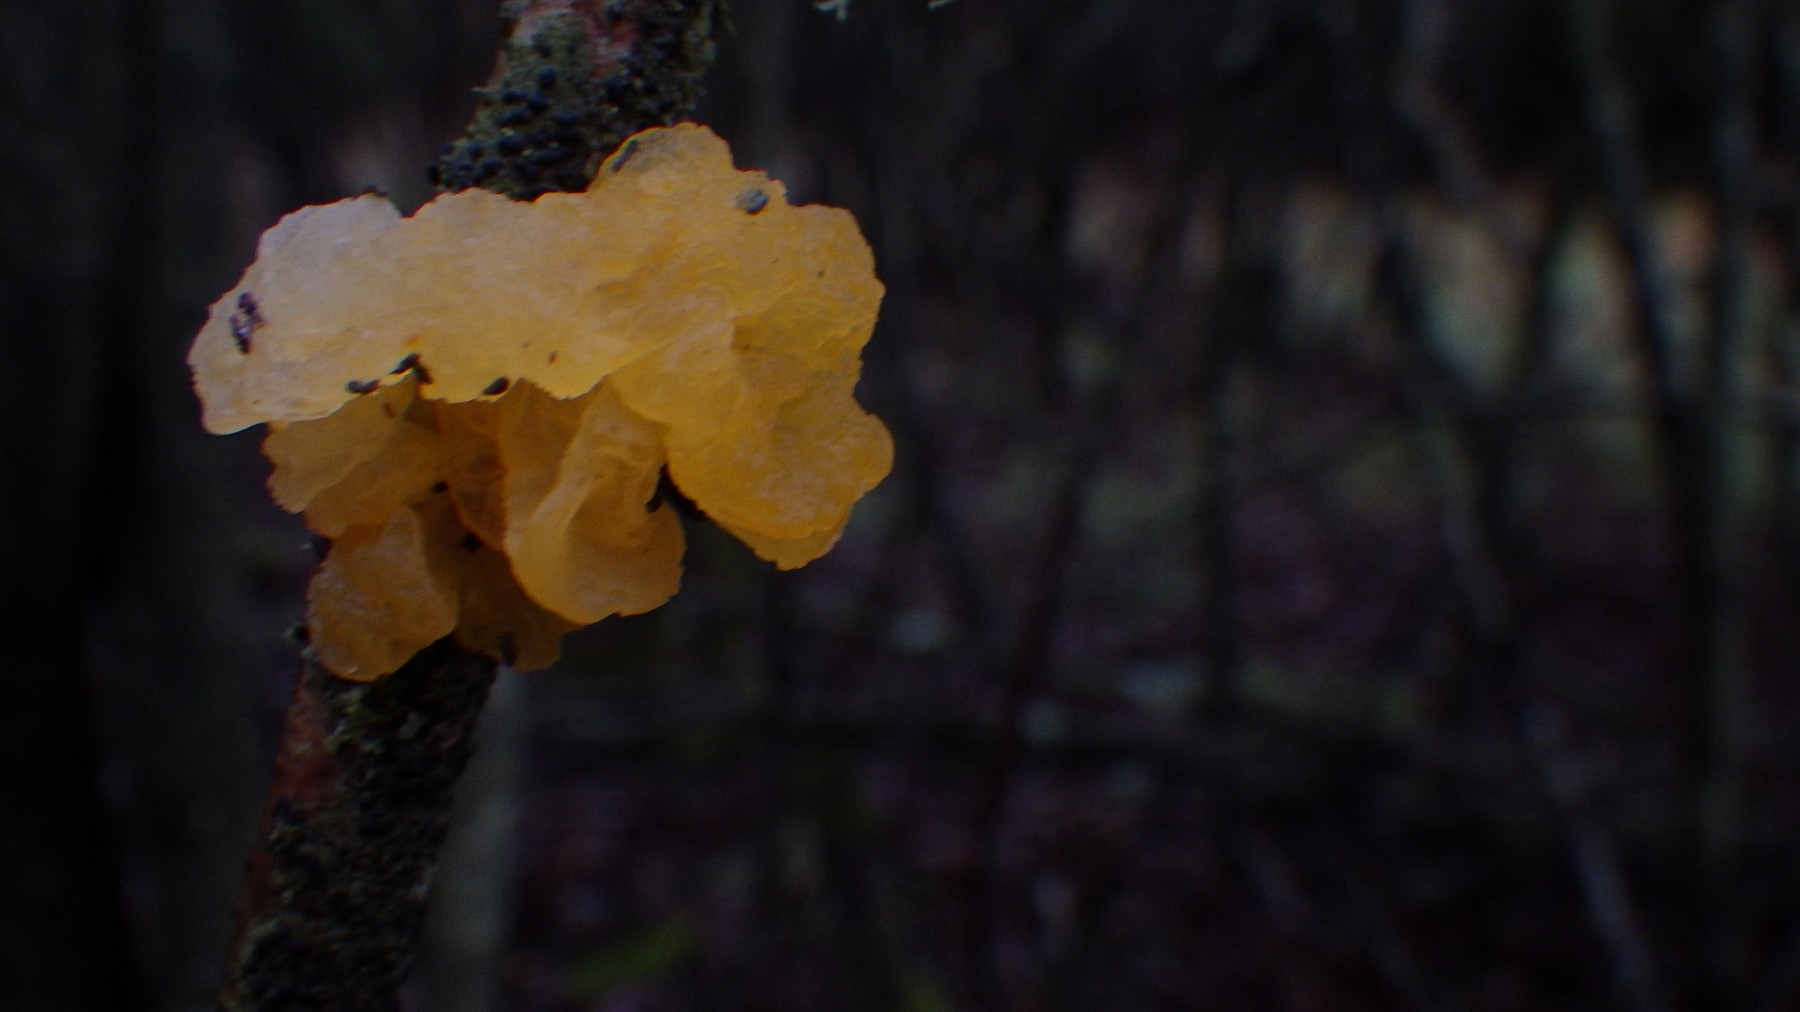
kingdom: Fungi
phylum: Basidiomycota
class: Tremellomycetes
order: Tremellales
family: Tremellaceae
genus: Tremella
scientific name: Tremella mesenterica
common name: gul bævresvamp
